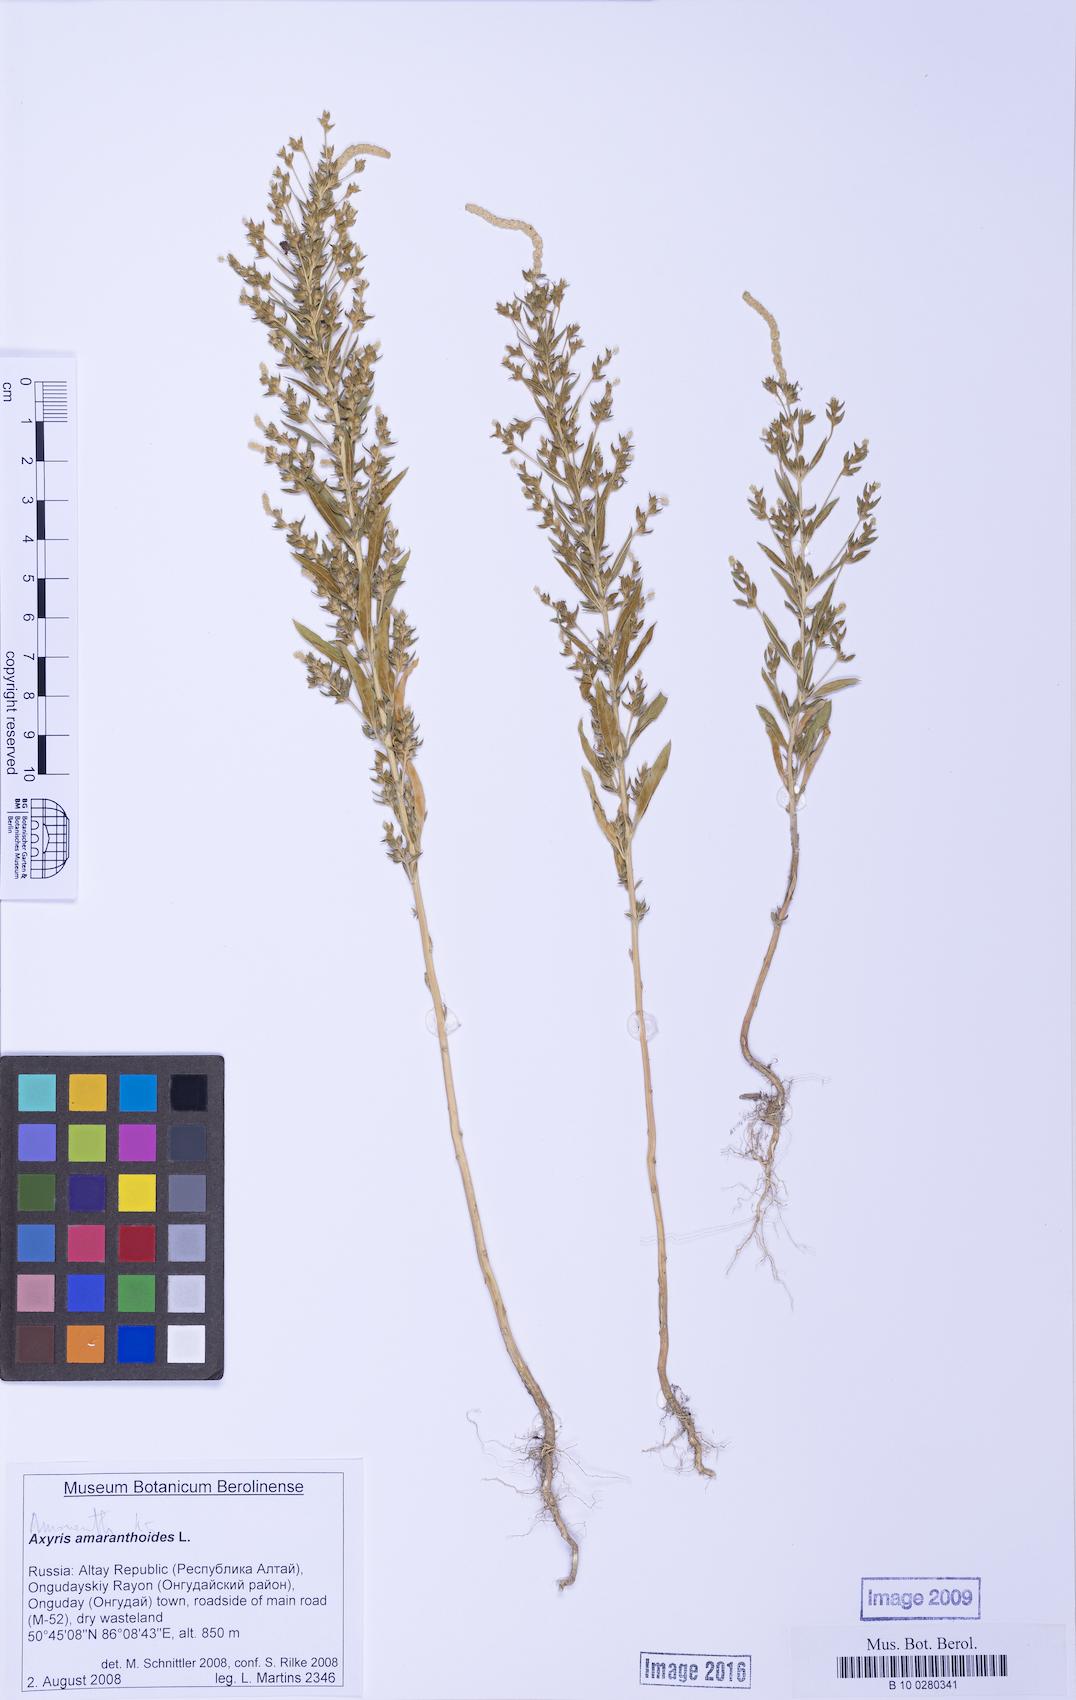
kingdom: Plantae
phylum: Tracheophyta
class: Magnoliopsida
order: Caryophyllales
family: Amaranthaceae
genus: Axyris
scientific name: Axyris amaranthoides
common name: Russian pigweed
